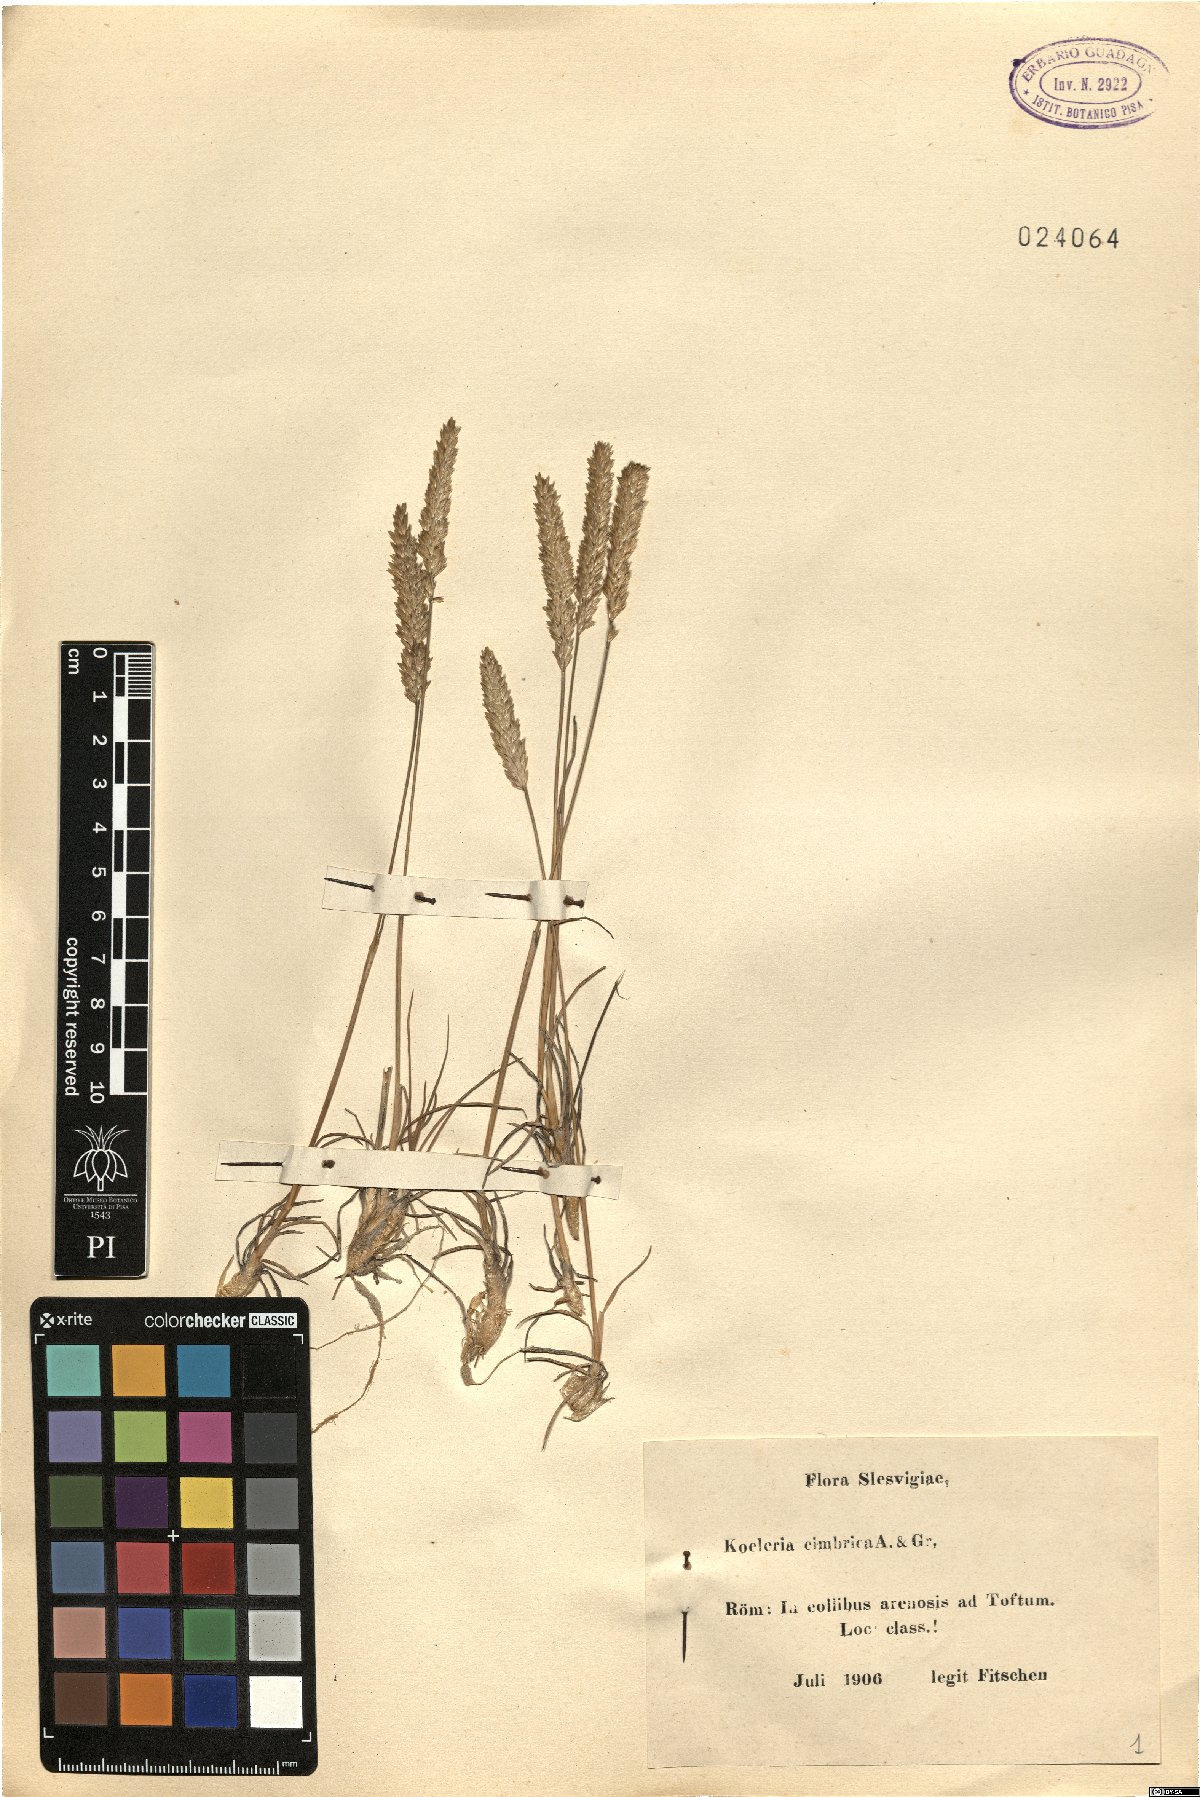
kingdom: Plantae
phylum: Tracheophyta
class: Liliopsida
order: Poales
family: Poaceae
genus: Koeleria
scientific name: Koeleria
